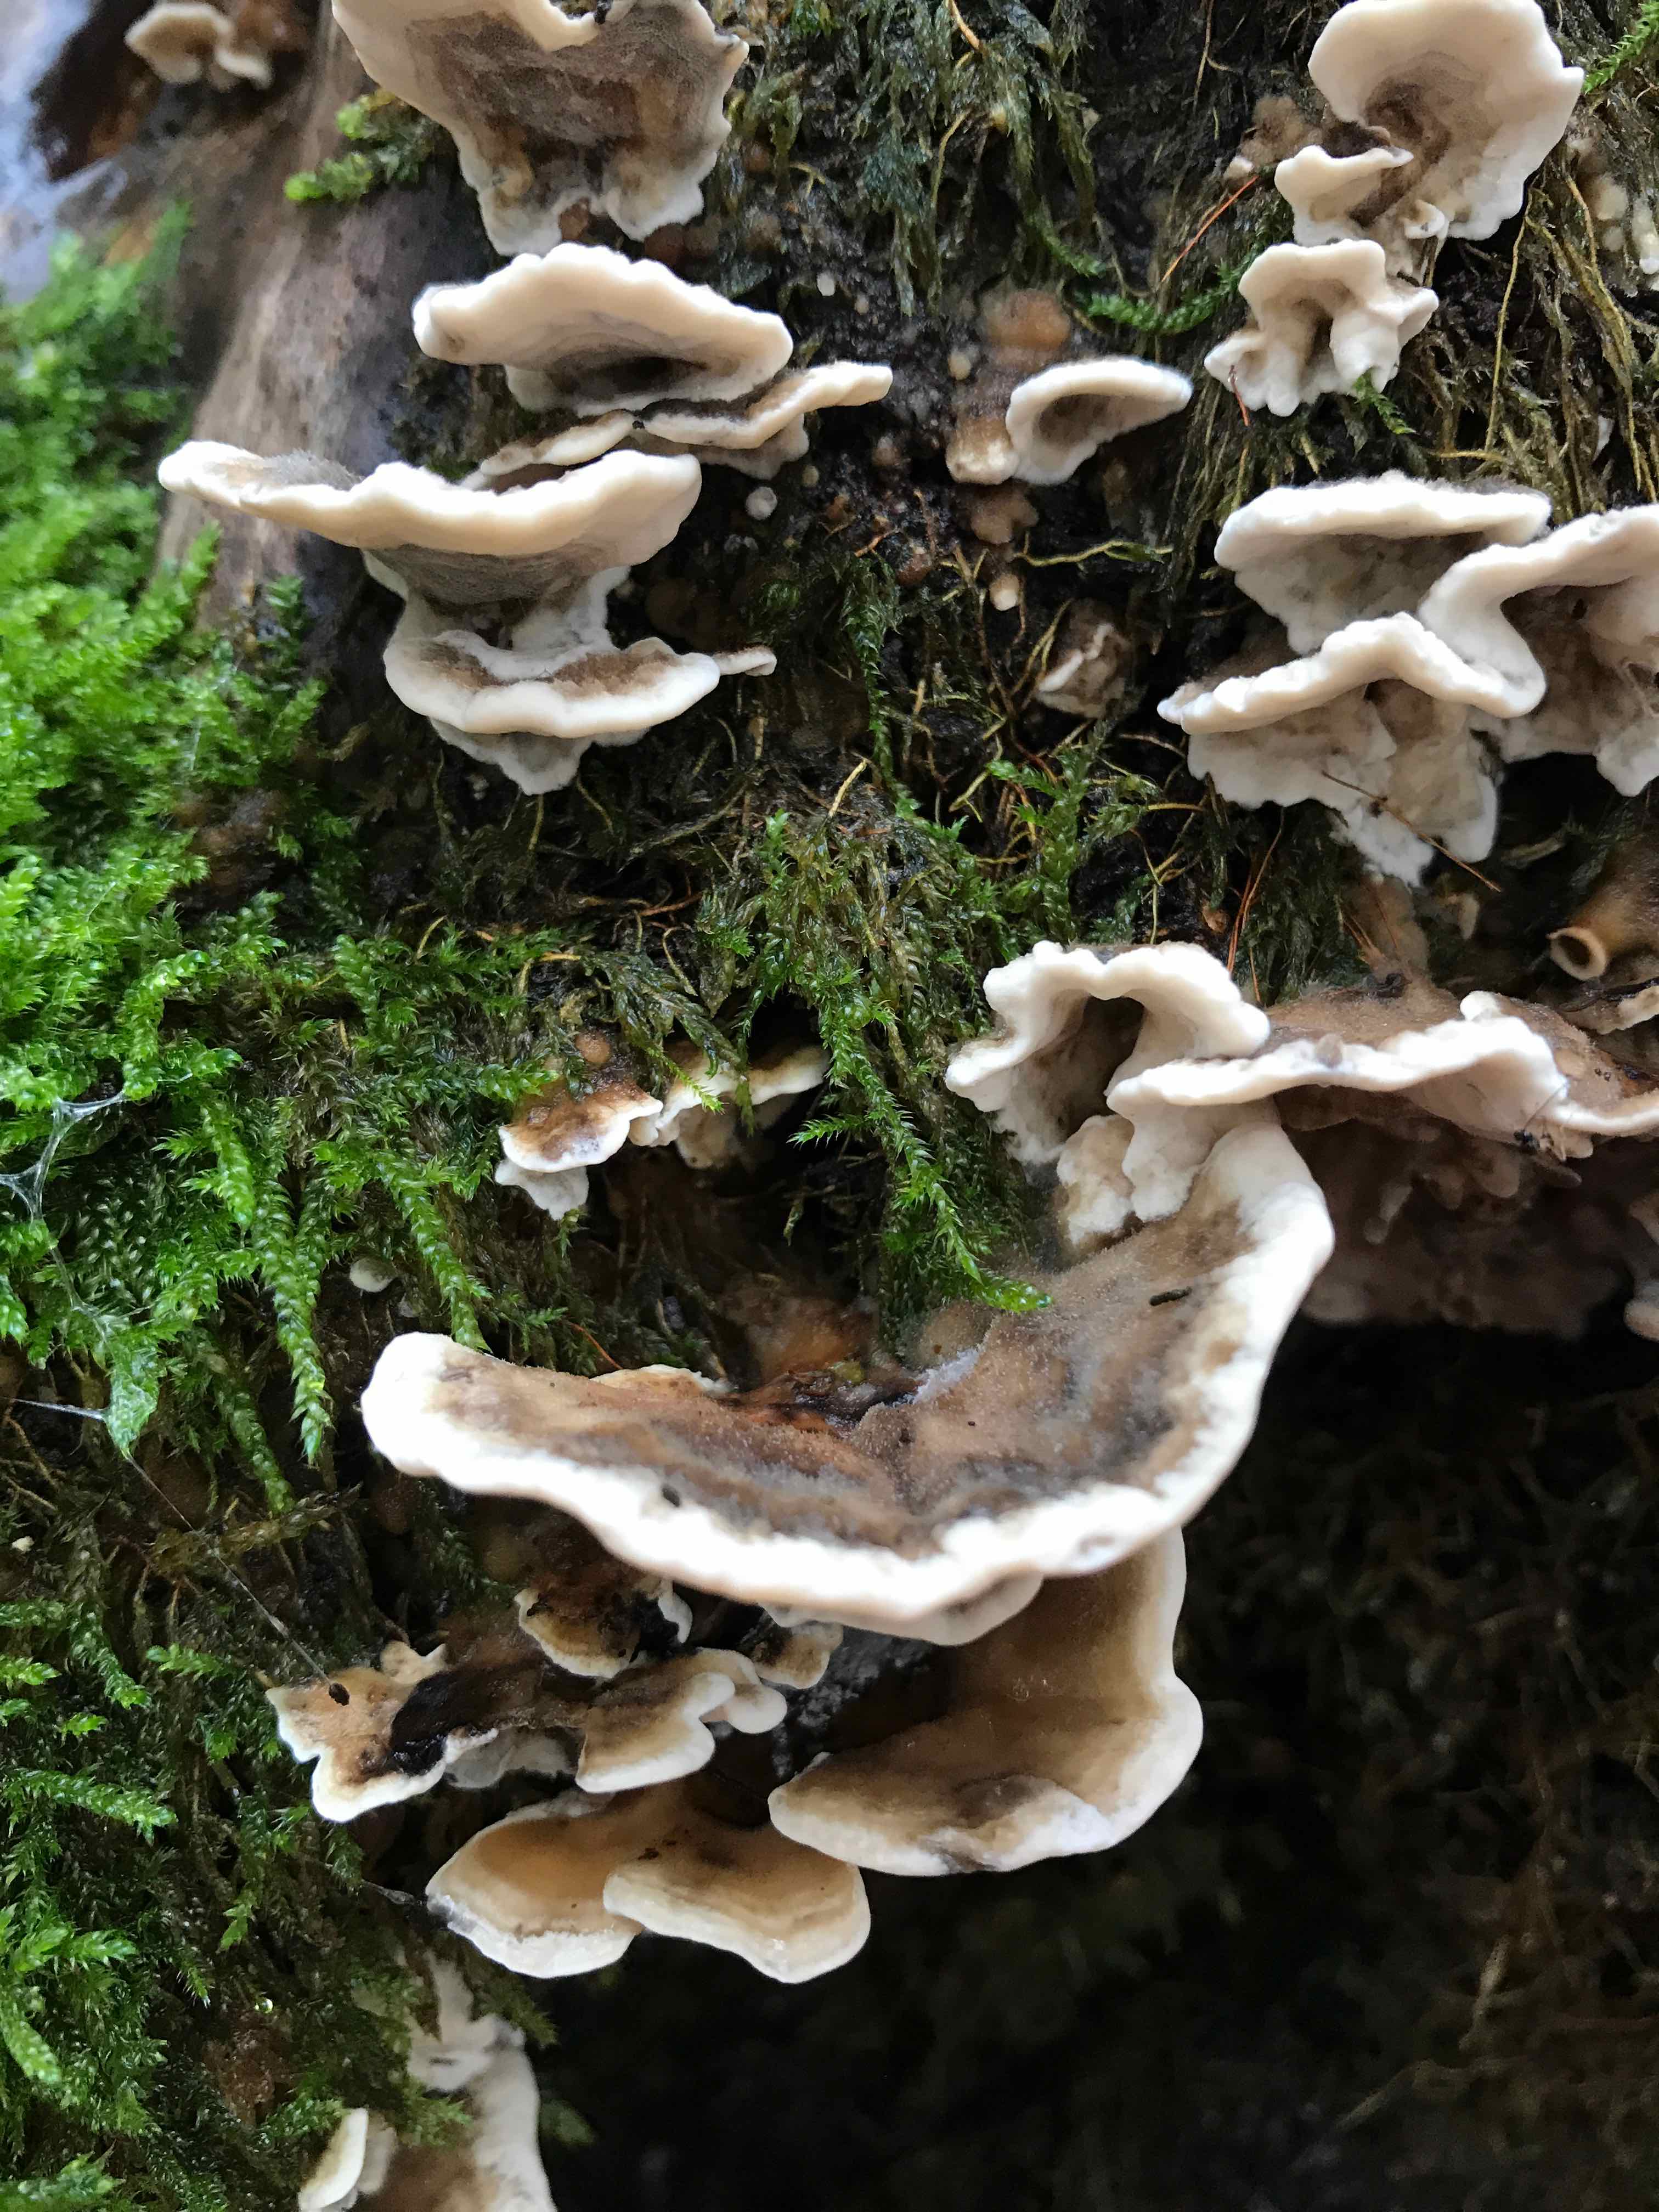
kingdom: Fungi
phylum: Basidiomycota
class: Agaricomycetes
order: Polyporales
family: Phanerochaetaceae
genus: Bjerkandera
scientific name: Bjerkandera adusta
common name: sveden sodporesvamp
